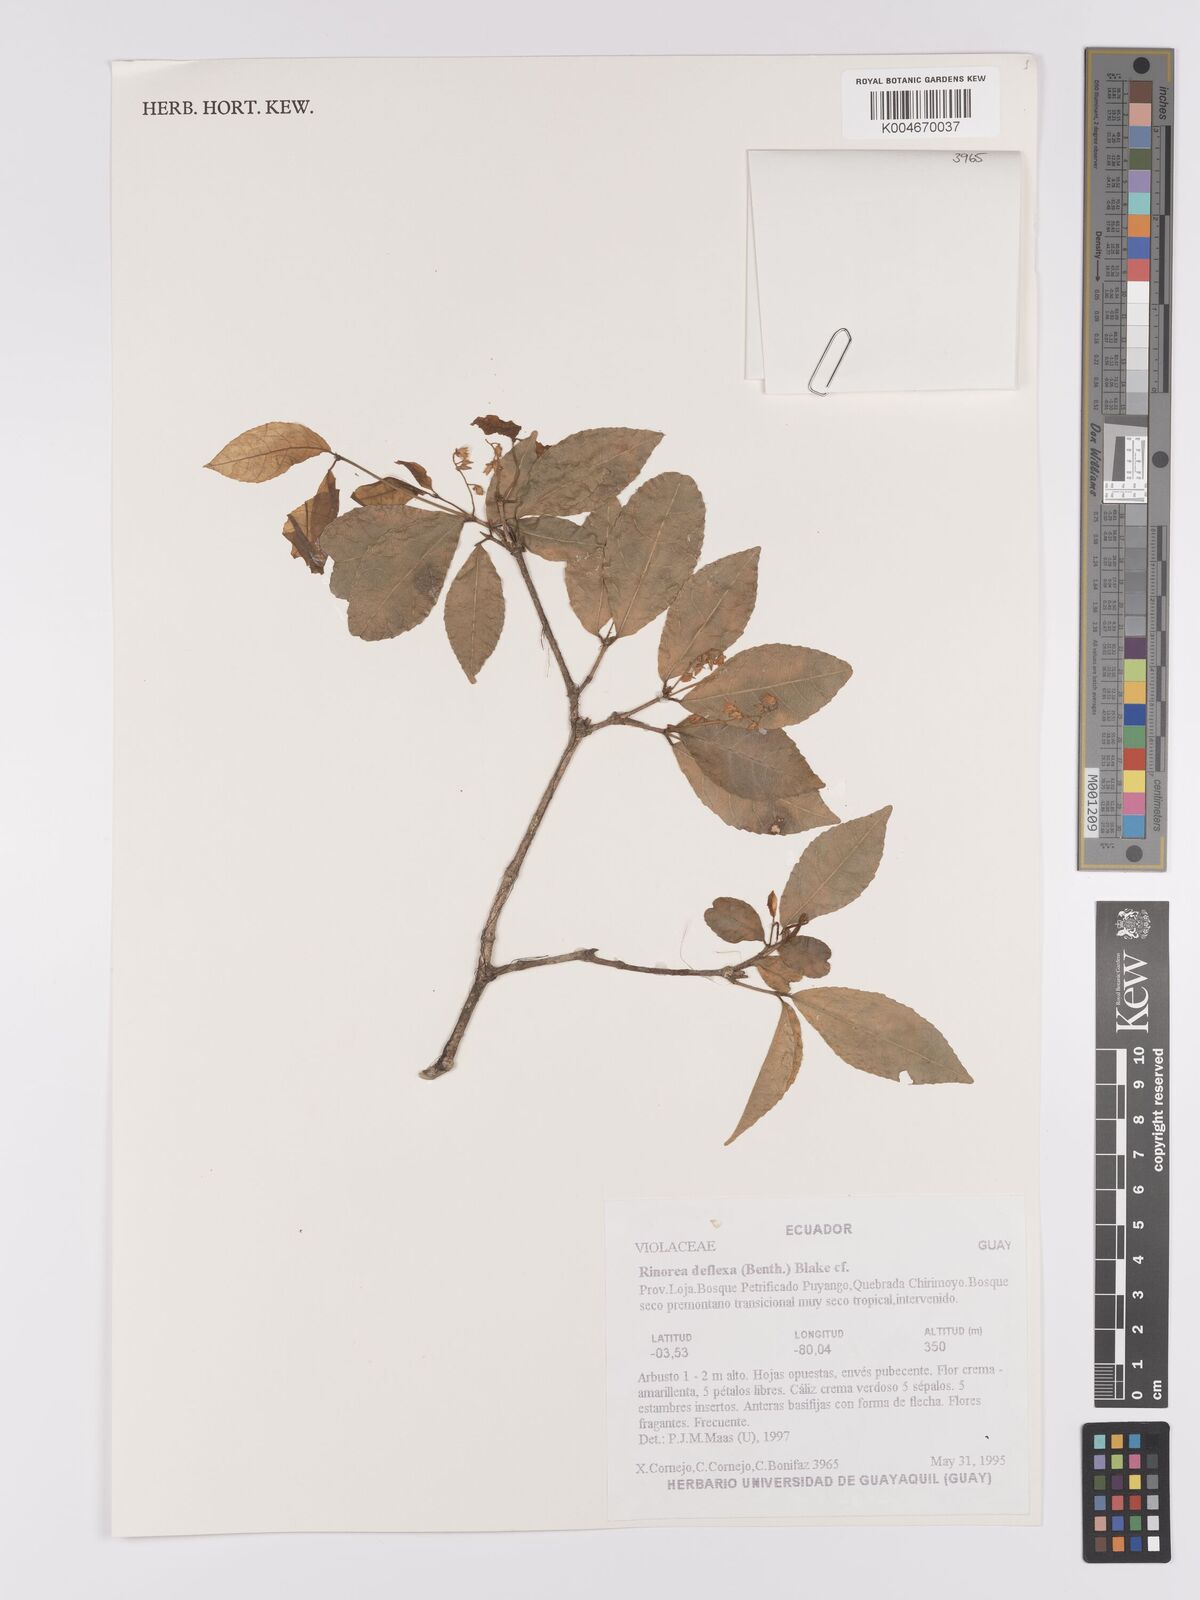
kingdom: Plantae
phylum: Tracheophyta
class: Magnoliopsida
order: Malpighiales
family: Violaceae
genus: Rinorea
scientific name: Rinorea deflexa
